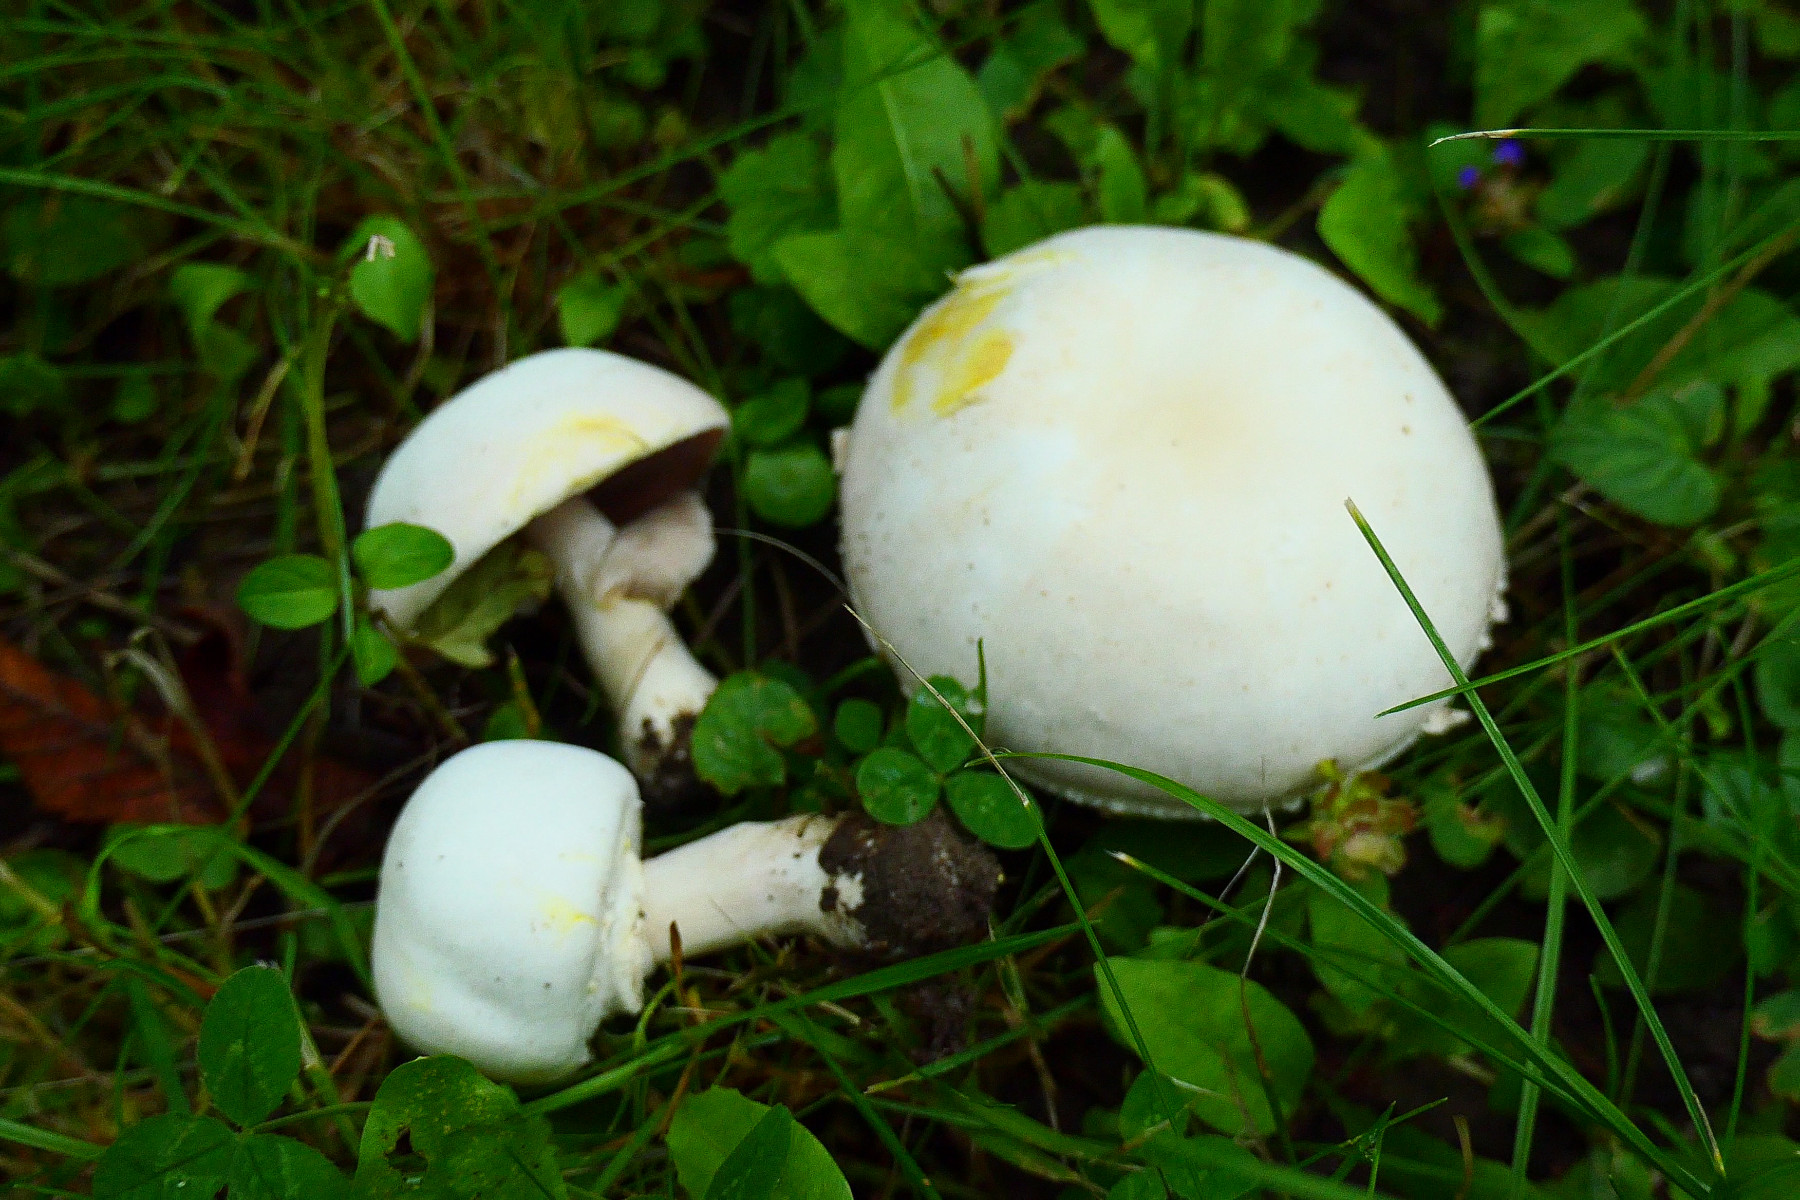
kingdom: Fungi
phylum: Basidiomycota
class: Agaricomycetes
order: Agaricales
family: Agaricaceae
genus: Agaricus
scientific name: Agaricus xanthodermus
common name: karbol-champignon
